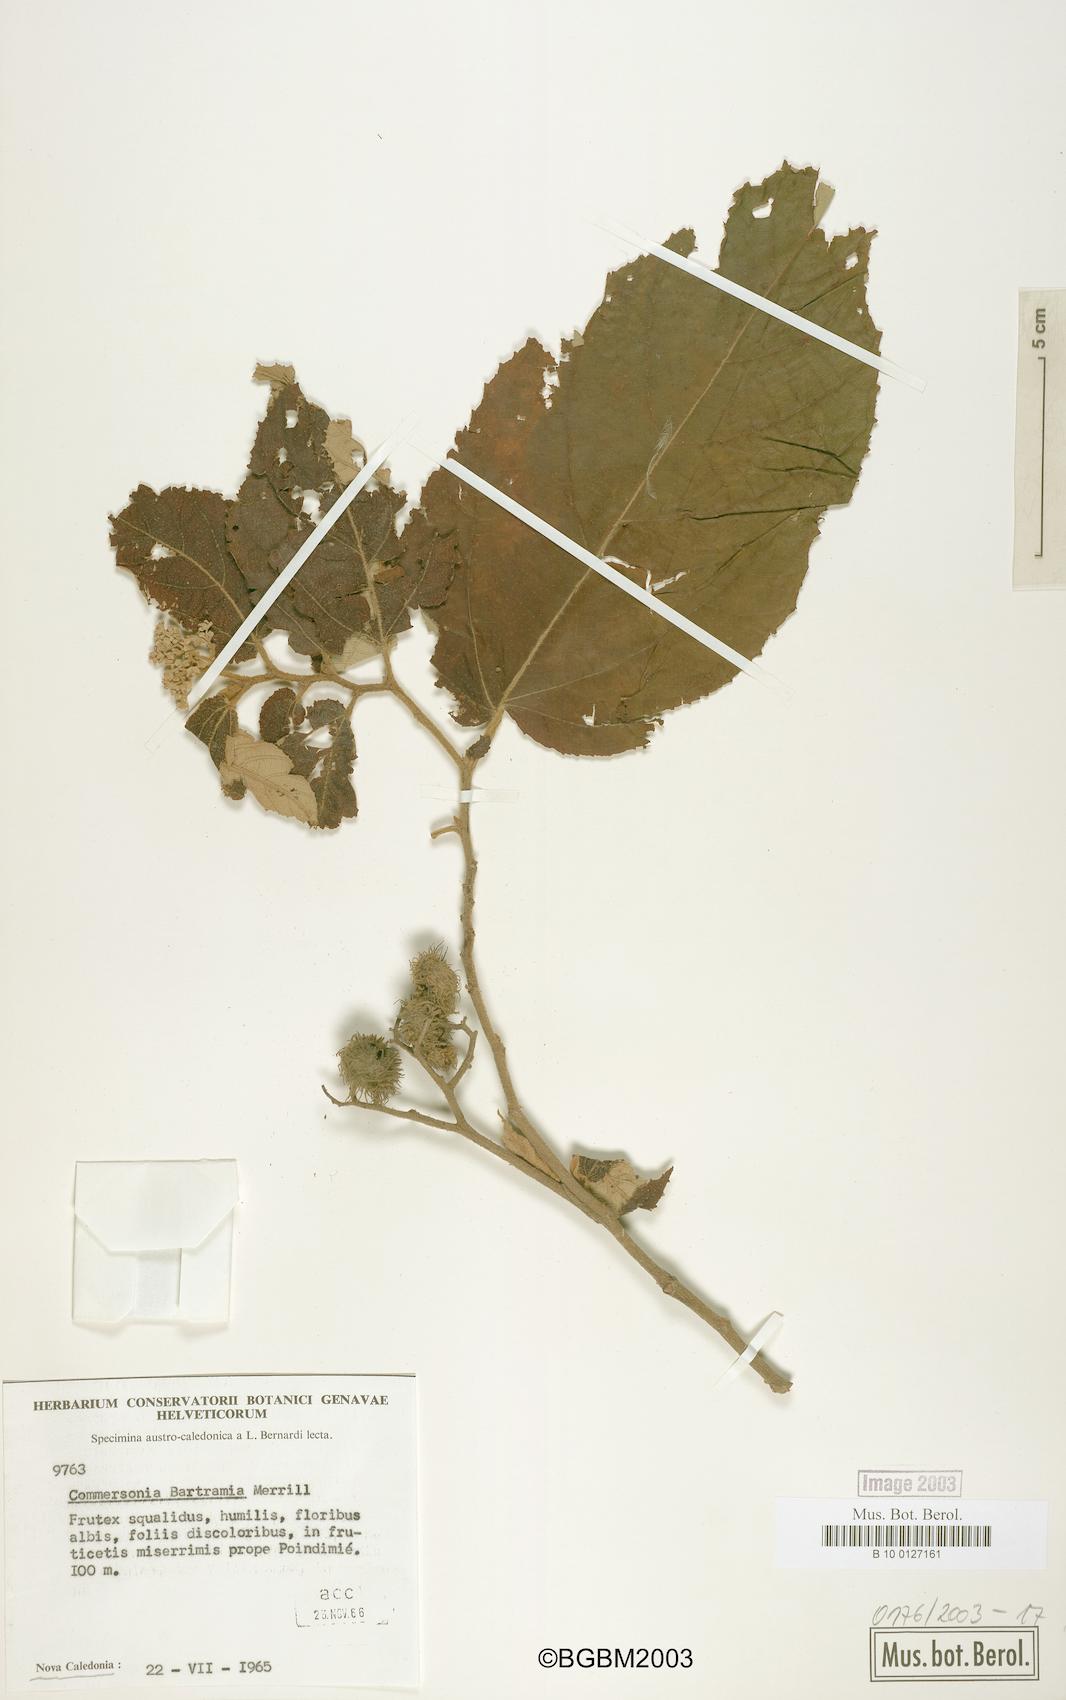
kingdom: Plantae
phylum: Tracheophyta
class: Magnoliopsida
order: Malvales
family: Malvaceae
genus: Commersonia
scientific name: Commersonia bartramia
